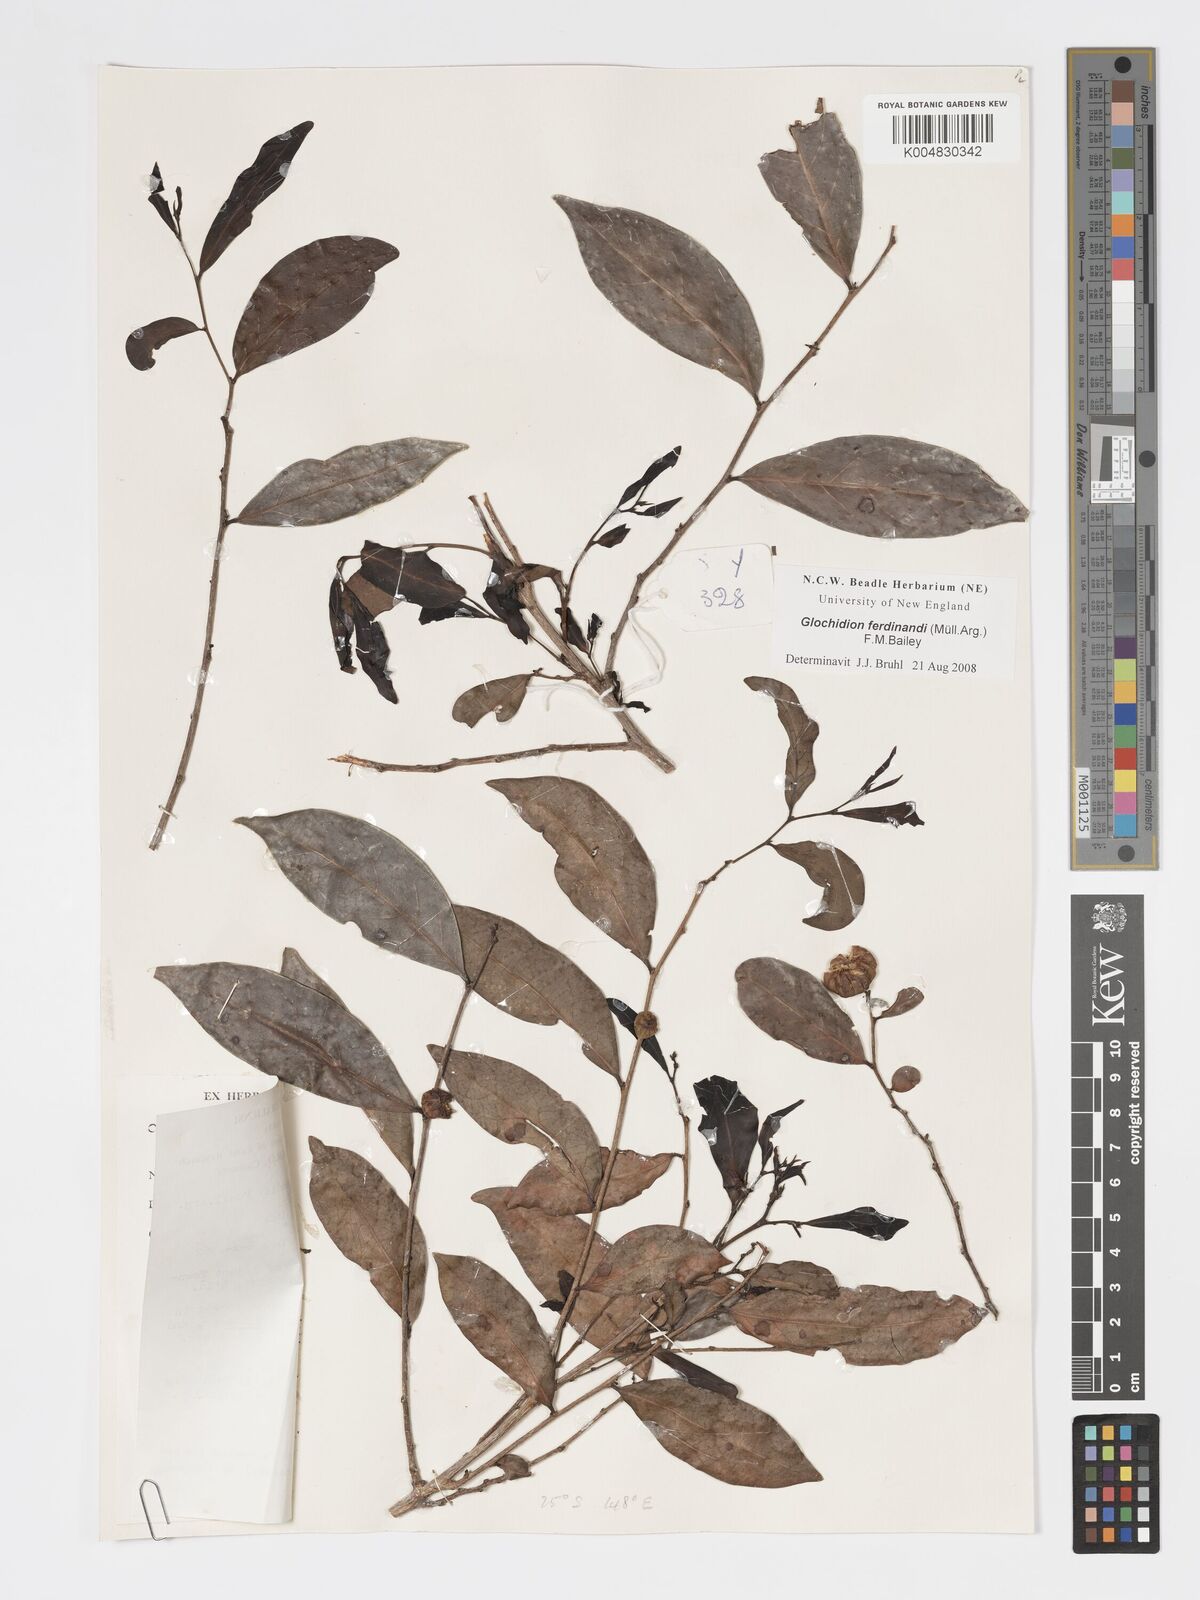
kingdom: Plantae
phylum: Tracheophyta
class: Magnoliopsida
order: Malpighiales
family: Phyllanthaceae
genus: Glochidion
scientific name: Glochidion ferdinandi
